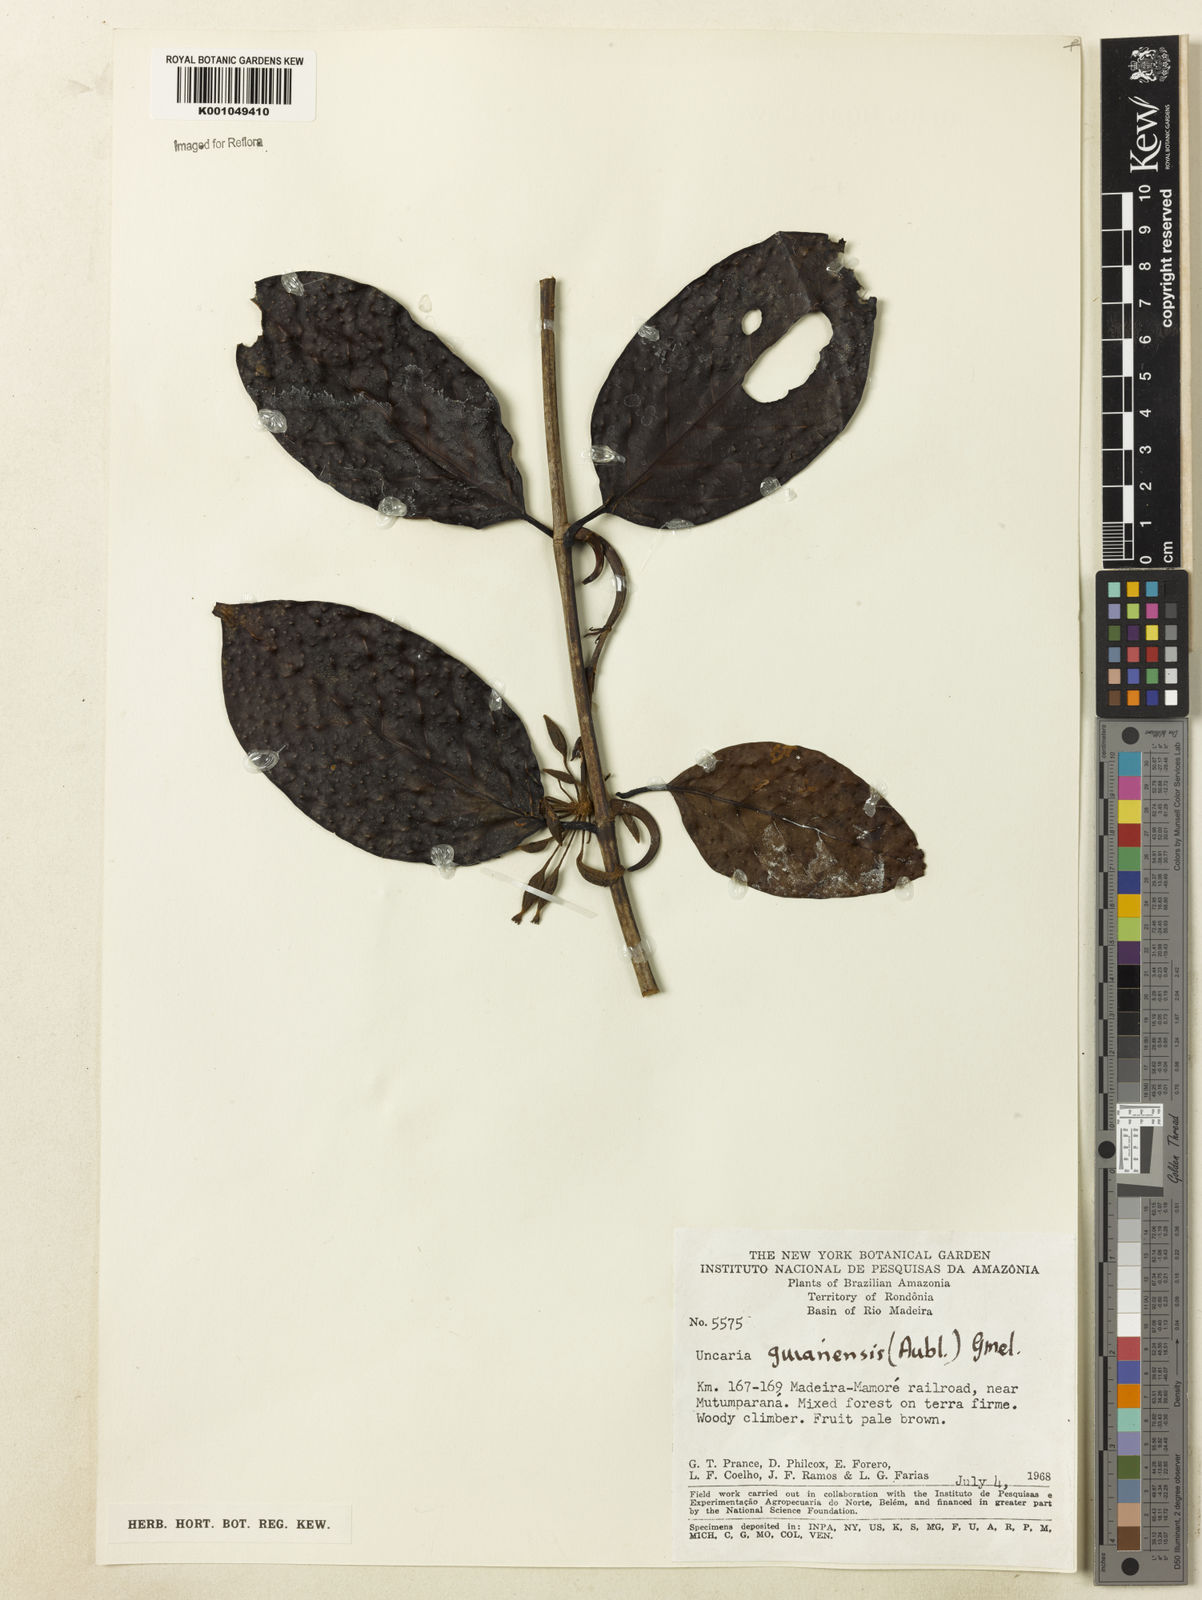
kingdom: Plantae
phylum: Tracheophyta
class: Magnoliopsida
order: Gentianales
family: Rubiaceae
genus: Uncaria
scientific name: Uncaria guianensis
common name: Cat's-claw
